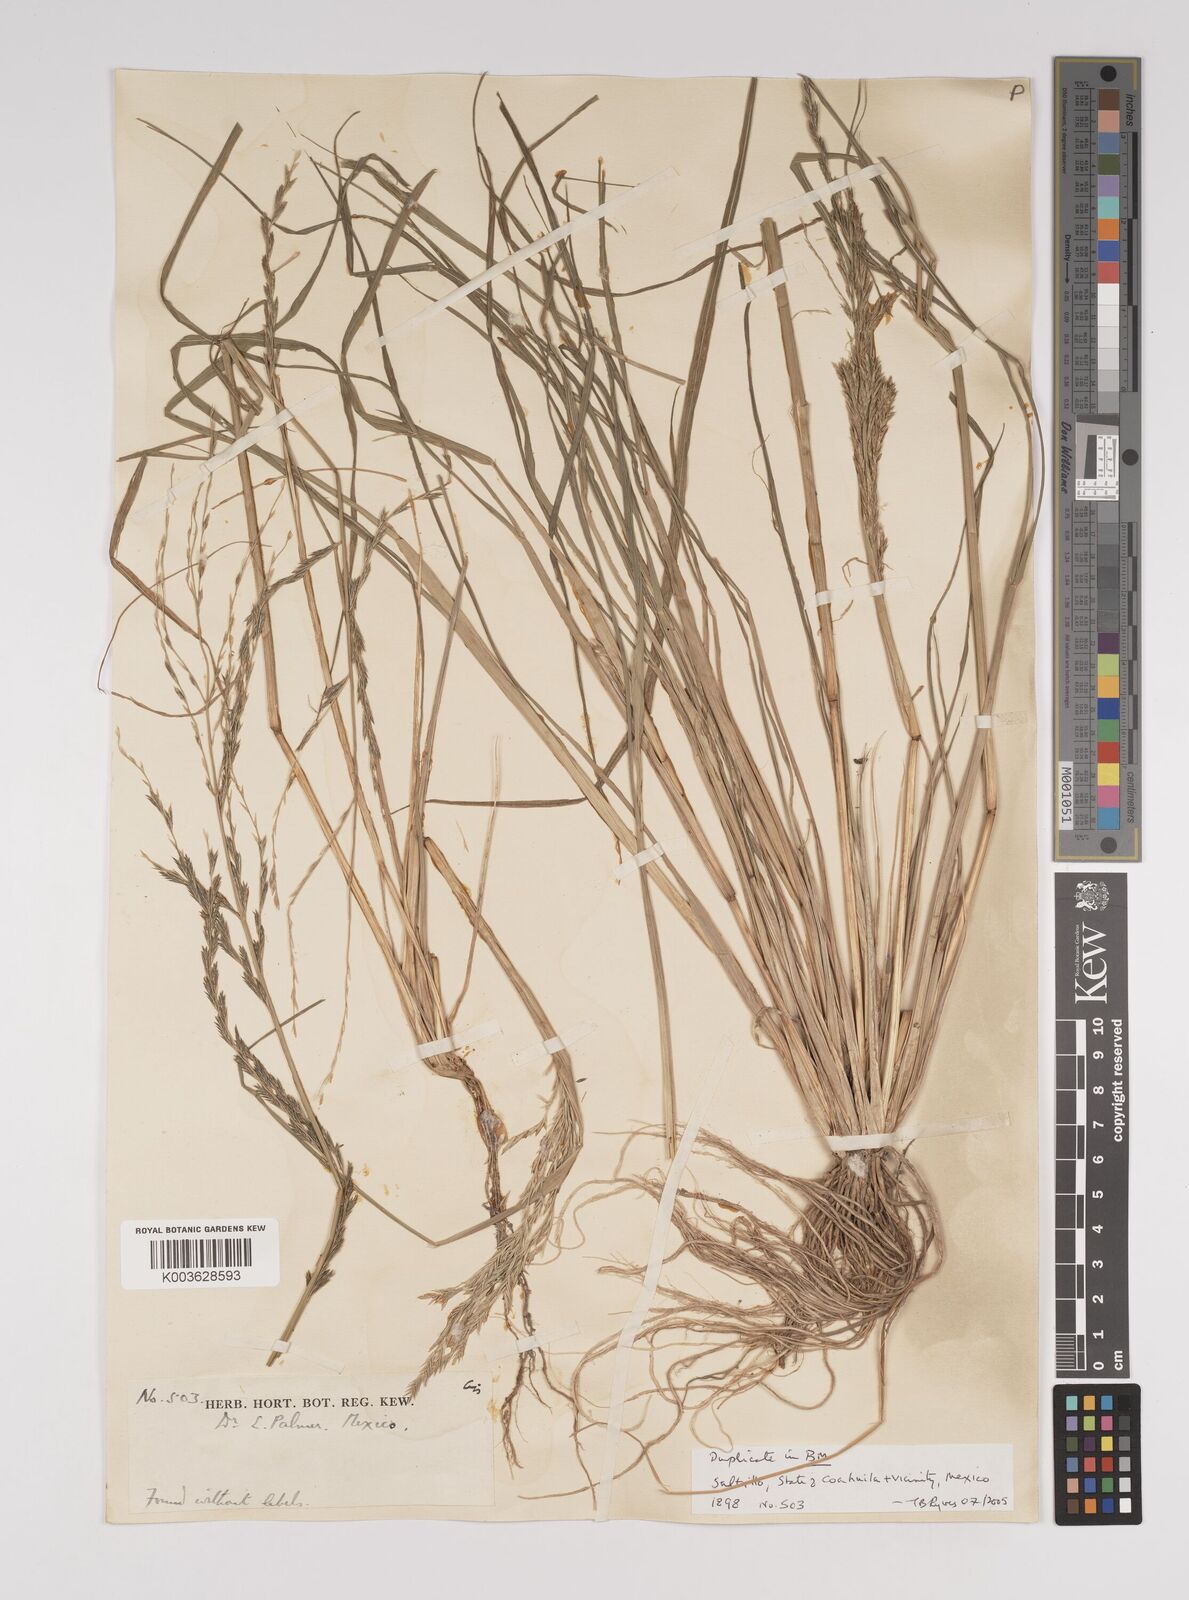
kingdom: Plantae
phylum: Tracheophyta
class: Liliopsida
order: Poales
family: Poaceae
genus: Diplachne
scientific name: Diplachne fusca
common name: Brown beetle grass
